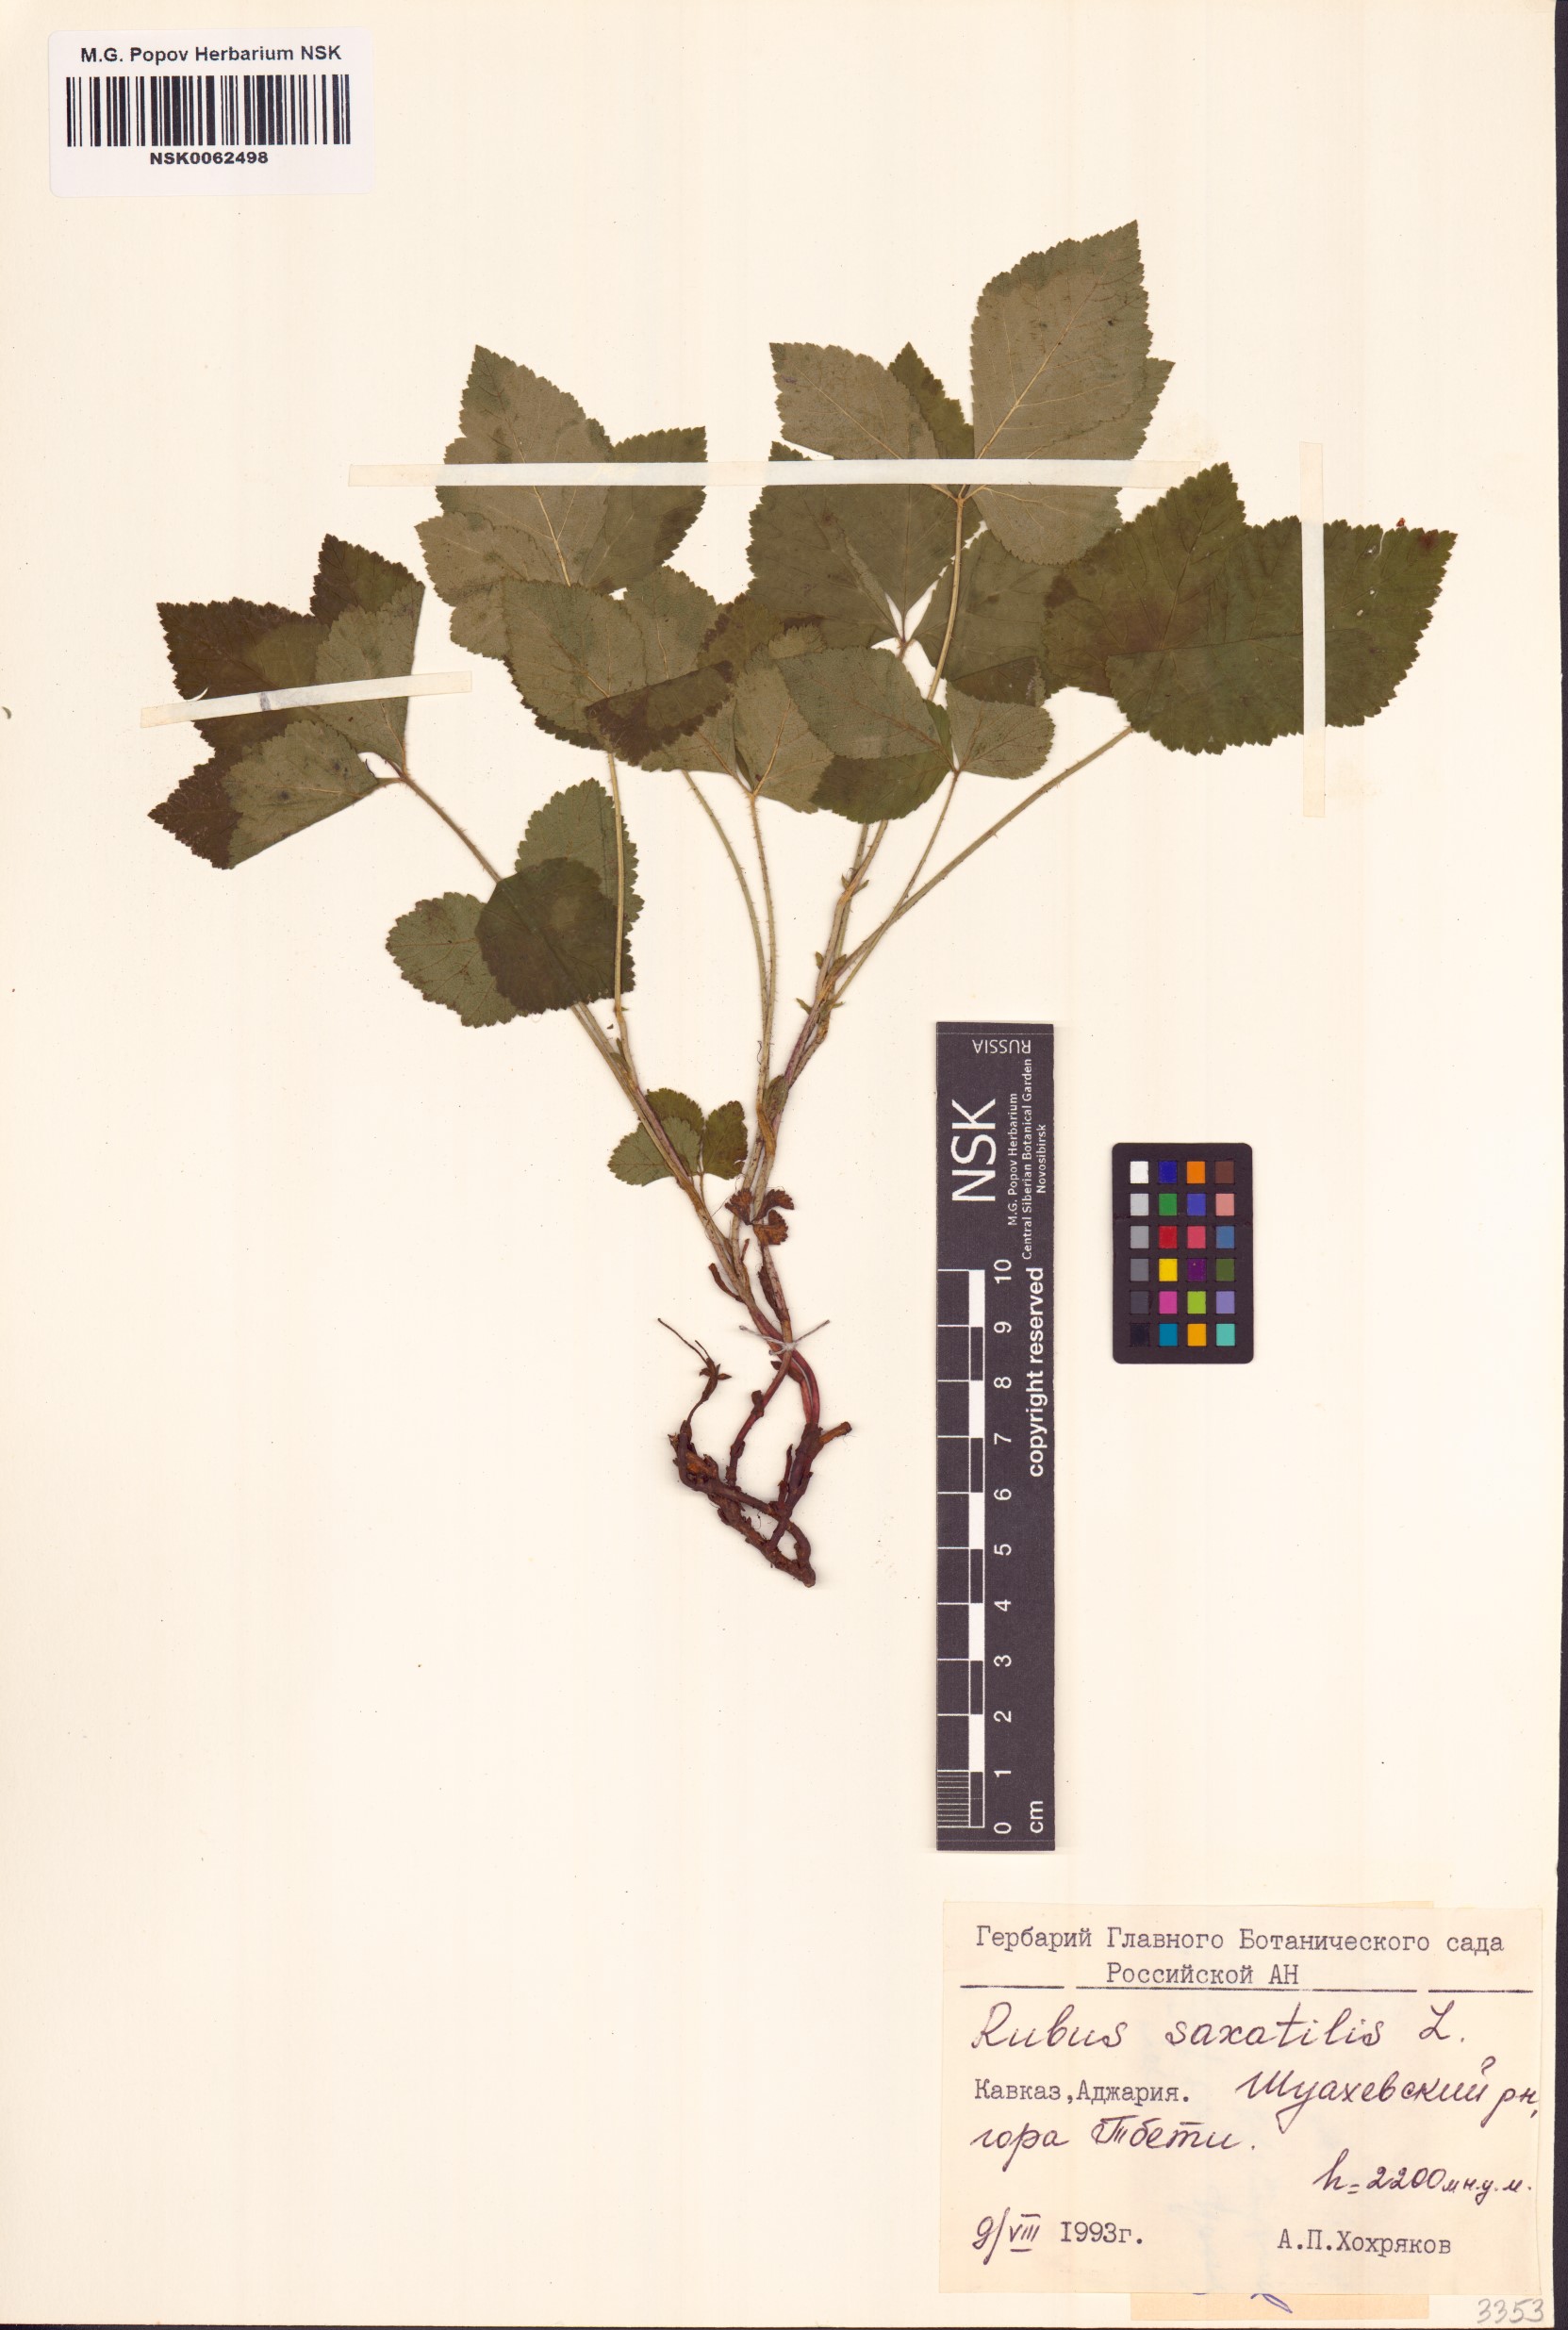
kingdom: Plantae
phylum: Tracheophyta
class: Magnoliopsida
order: Rosales
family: Rosaceae
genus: Rubus
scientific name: Rubus saxatilis
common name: Stone bramble
